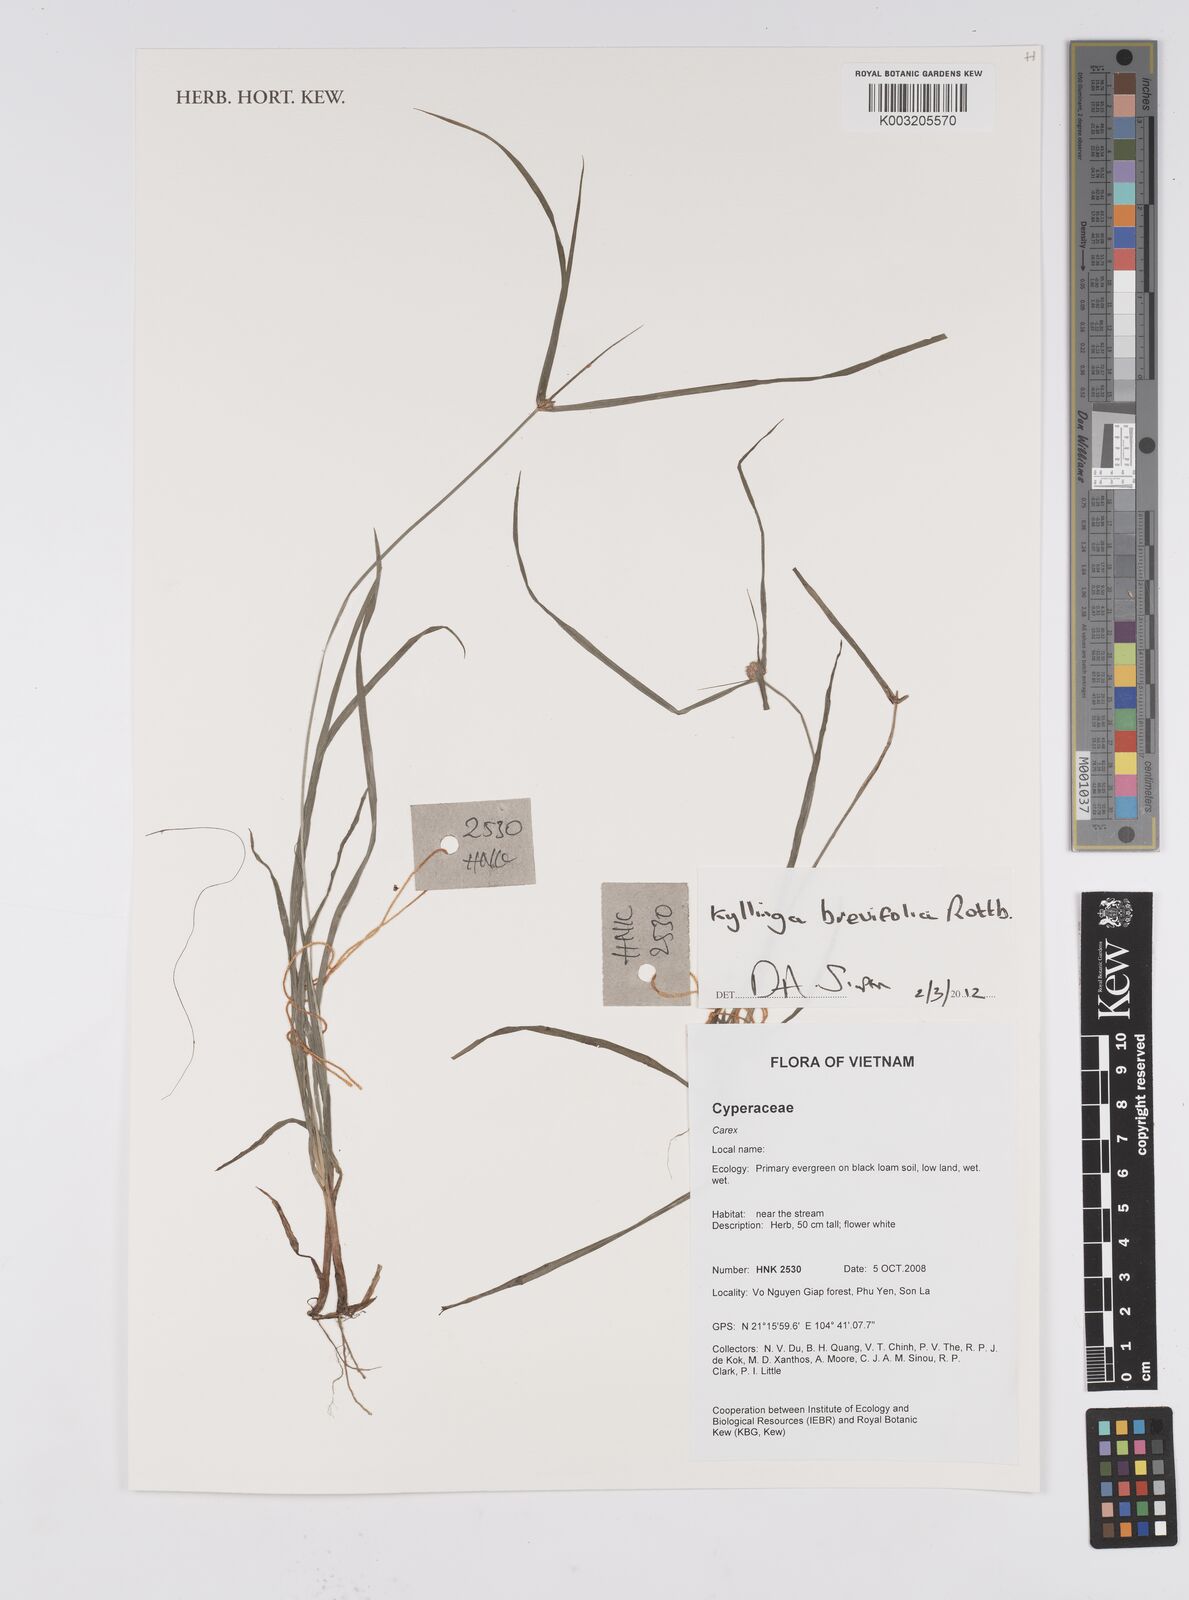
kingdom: Plantae
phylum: Tracheophyta
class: Liliopsida
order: Poales
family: Cyperaceae
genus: Cyperus
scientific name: Cyperus brevifolius
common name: Globe kyllinga
